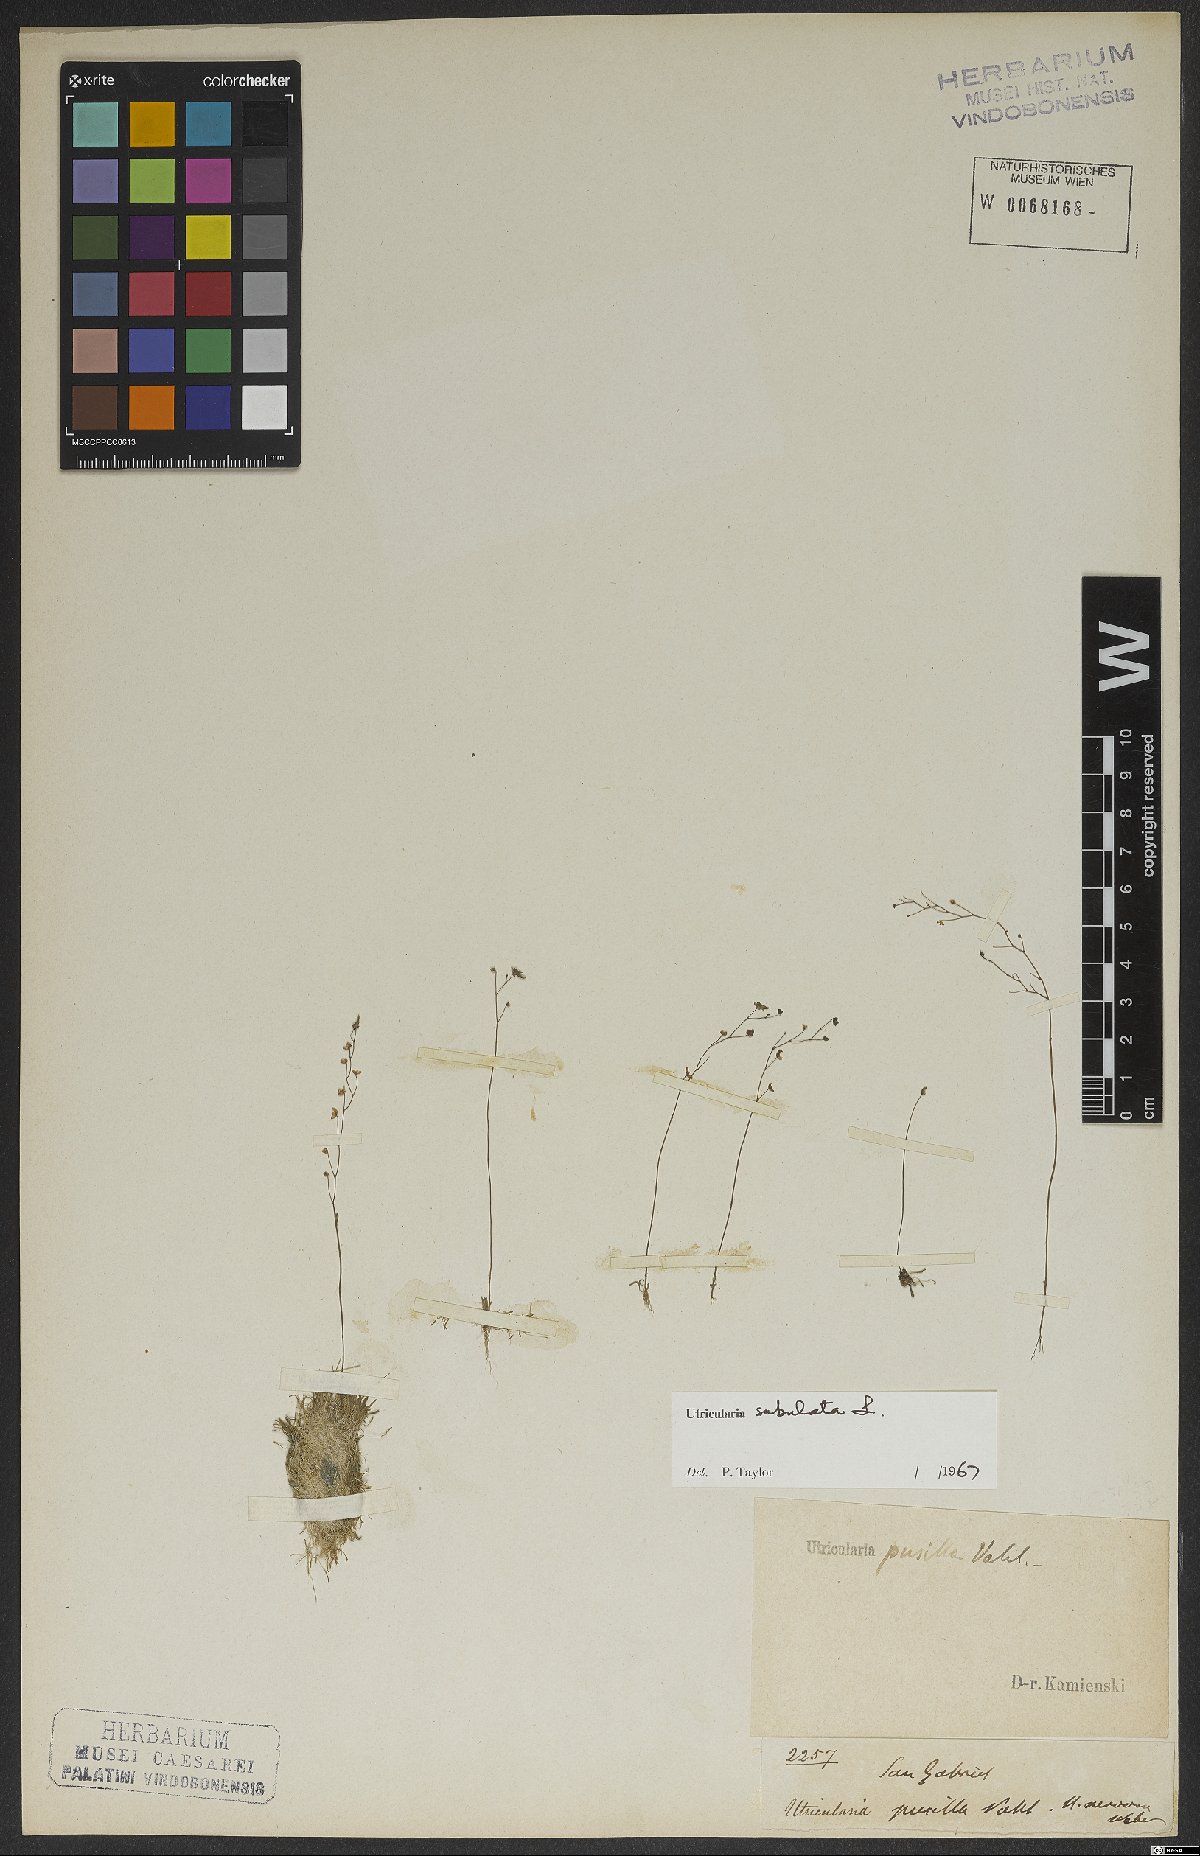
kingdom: Plantae
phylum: Tracheophyta
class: Magnoliopsida
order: Lamiales
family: Lentibulariaceae
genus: Utricularia
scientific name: Utricularia subulata
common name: Tiny bladderwort
